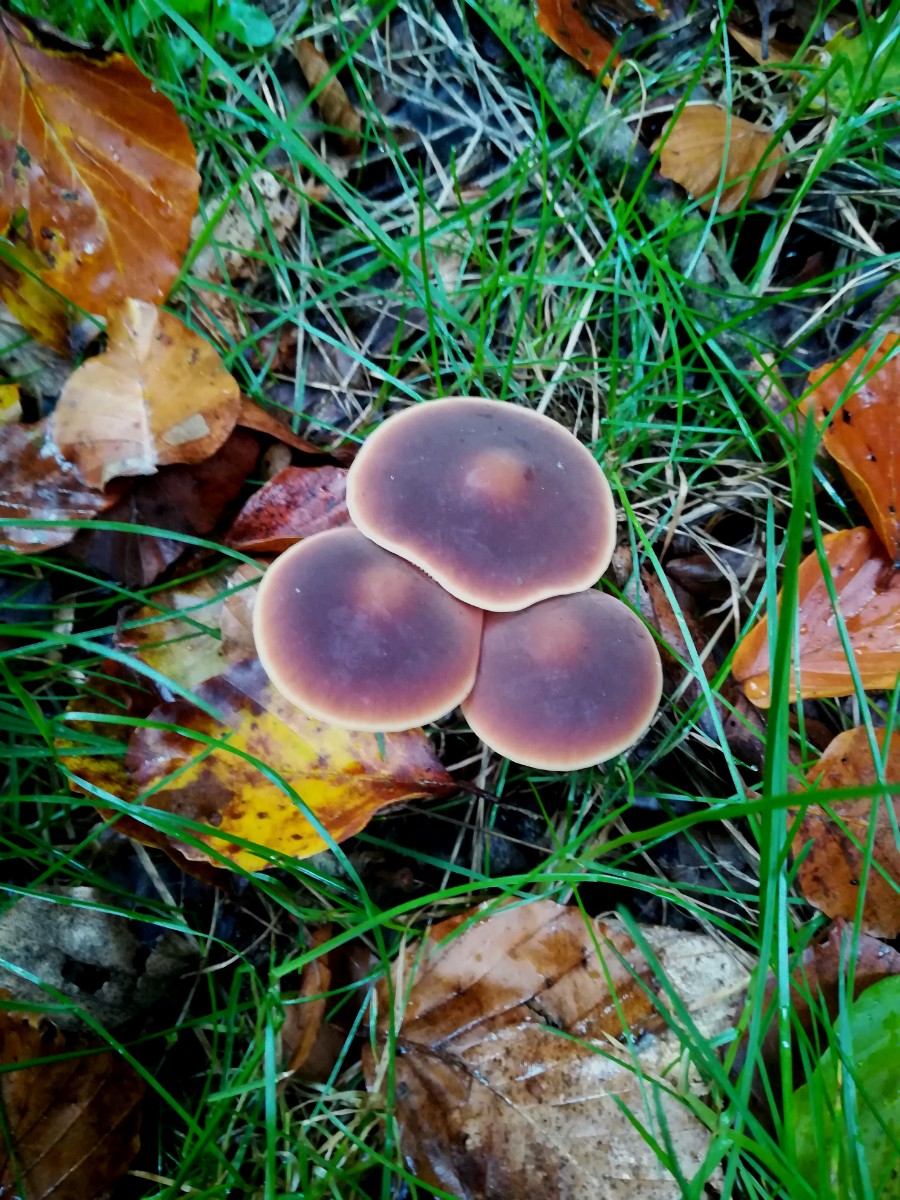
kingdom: Fungi
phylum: Basidiomycota
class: Agaricomycetes
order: Agaricales
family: Macrocystidiaceae
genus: Macrocystidia
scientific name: Macrocystidia
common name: agurkehat
